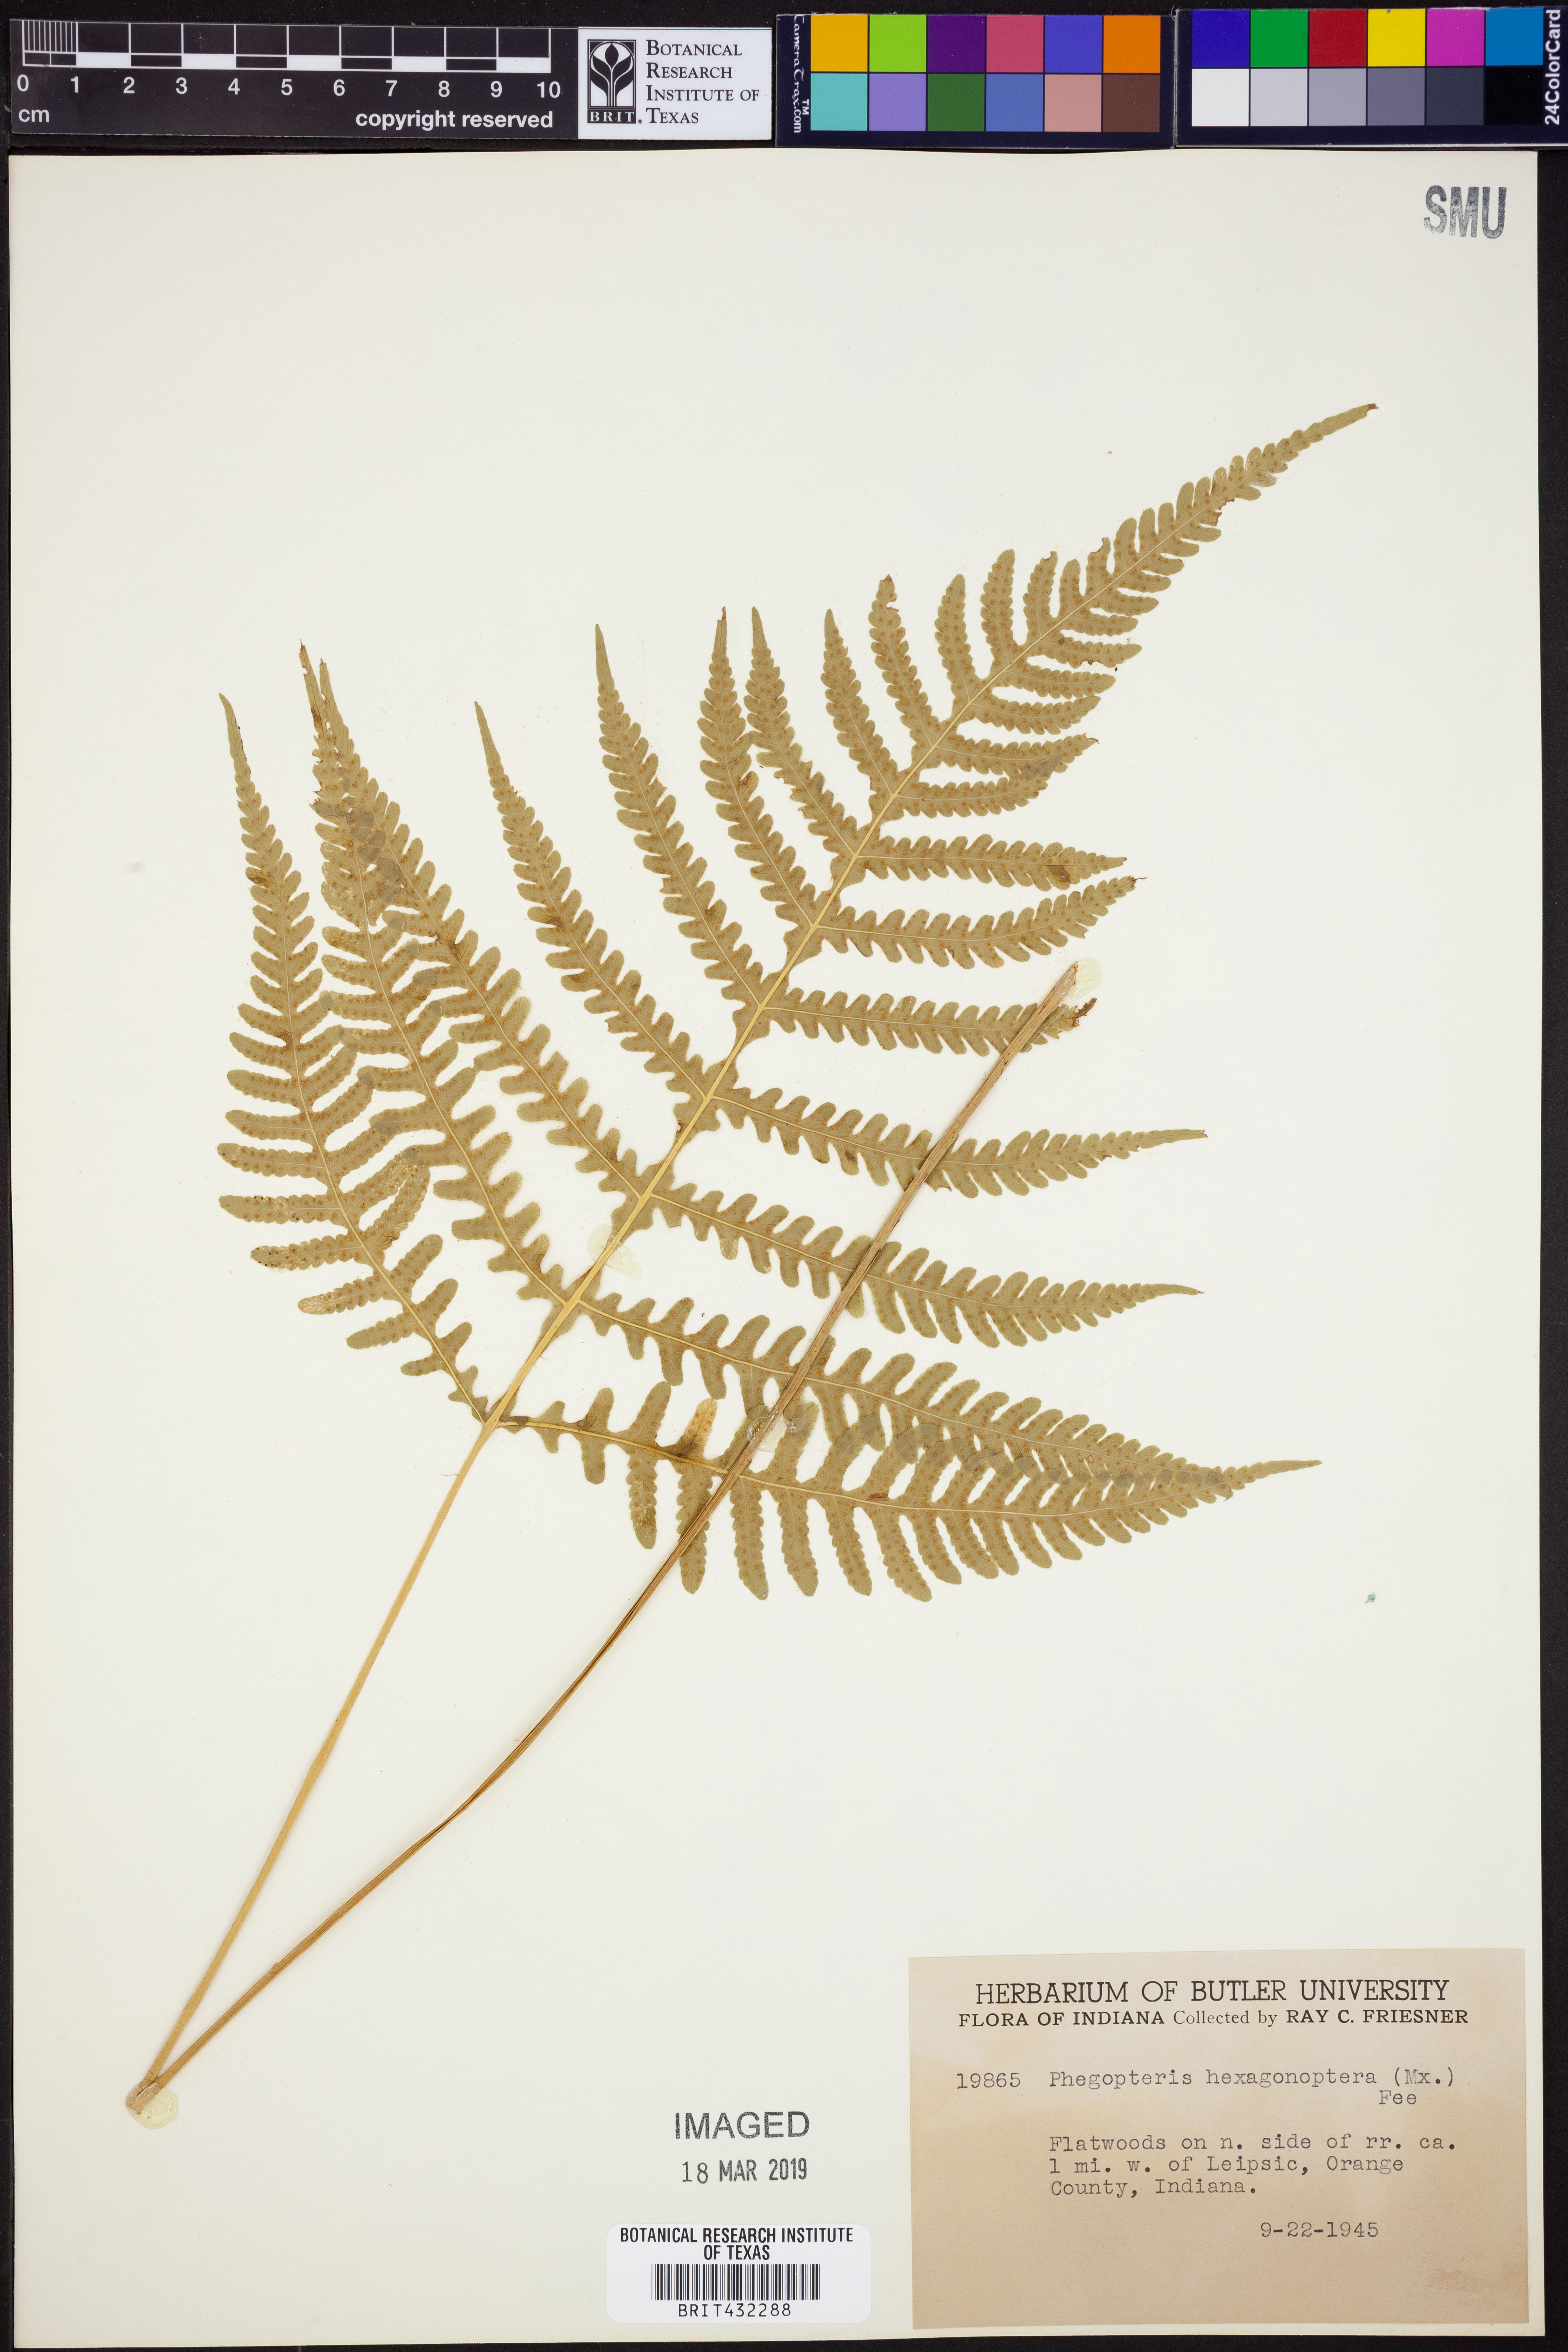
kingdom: Plantae
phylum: Tracheophyta
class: Polypodiopsida
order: Polypodiales
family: Thelypteridaceae
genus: Phegopteris
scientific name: Phegopteris hexagonoptera
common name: Broad beech fern
